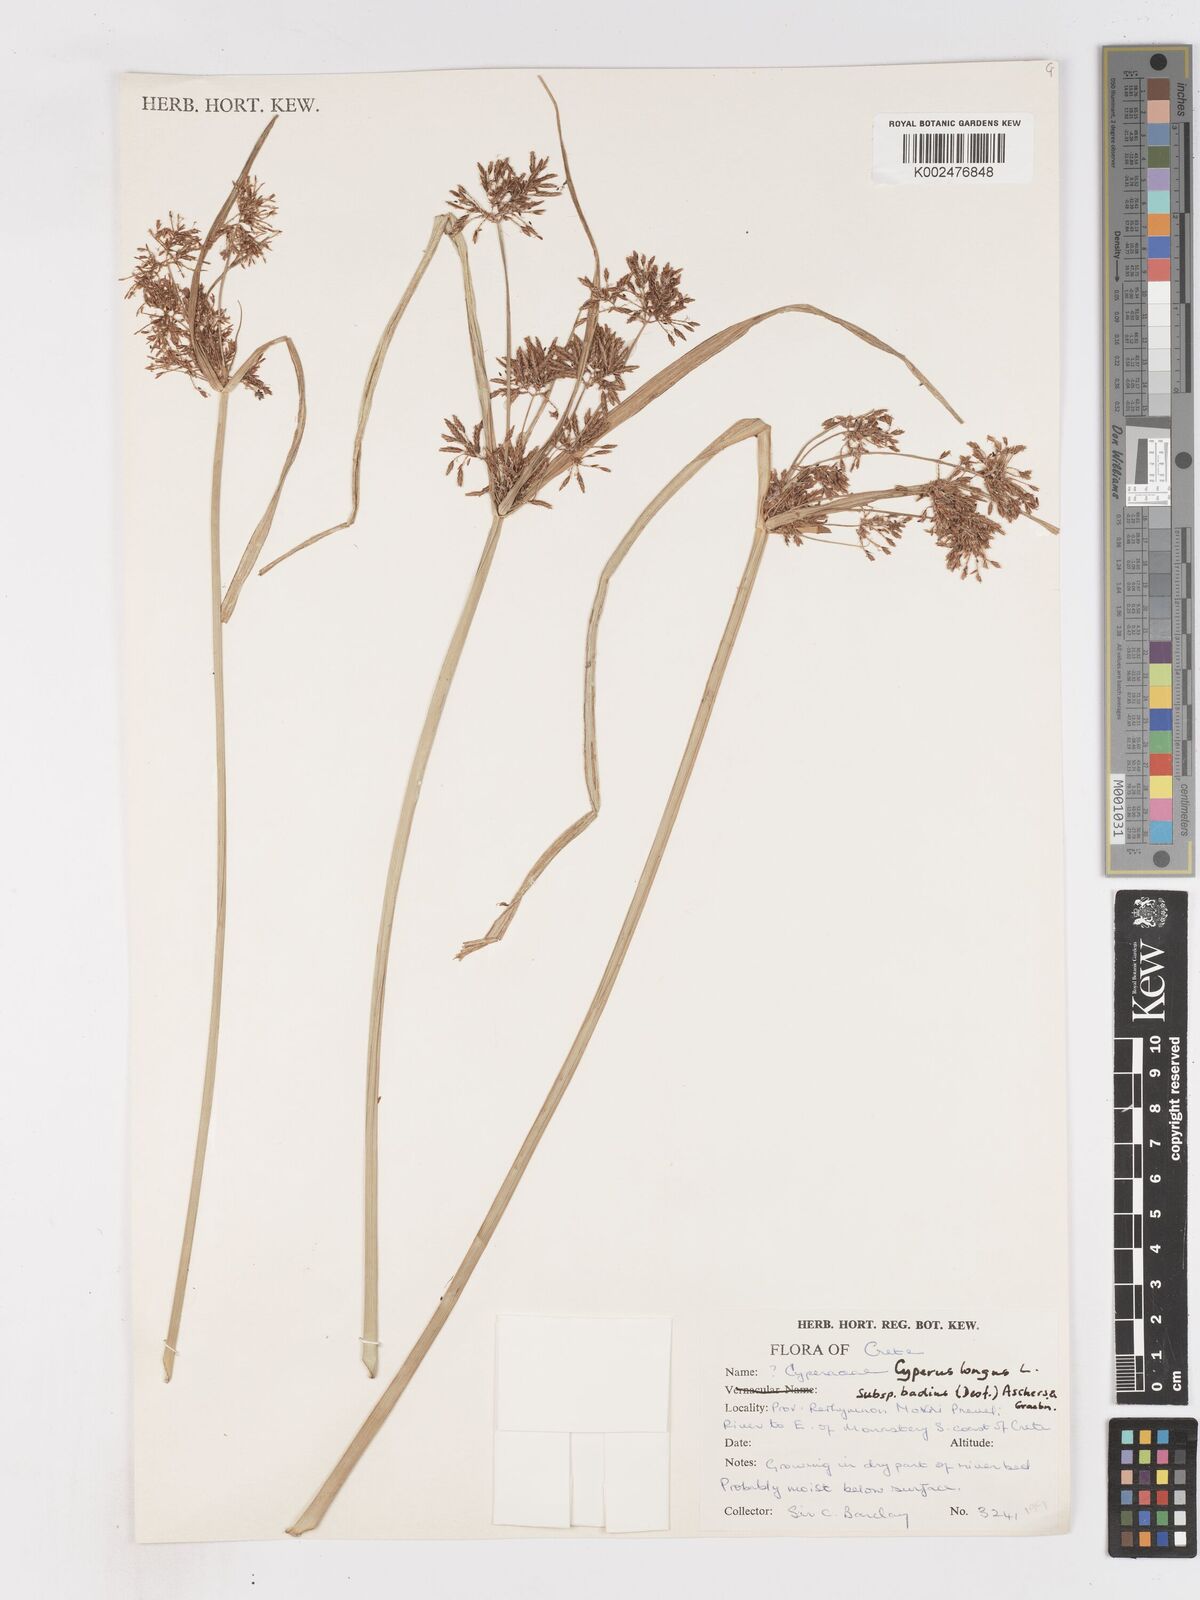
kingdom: Plantae
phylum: Tracheophyta
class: Liliopsida
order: Poales
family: Cyperaceae
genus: Cyperus
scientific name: Cyperus longus
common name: Galingale
